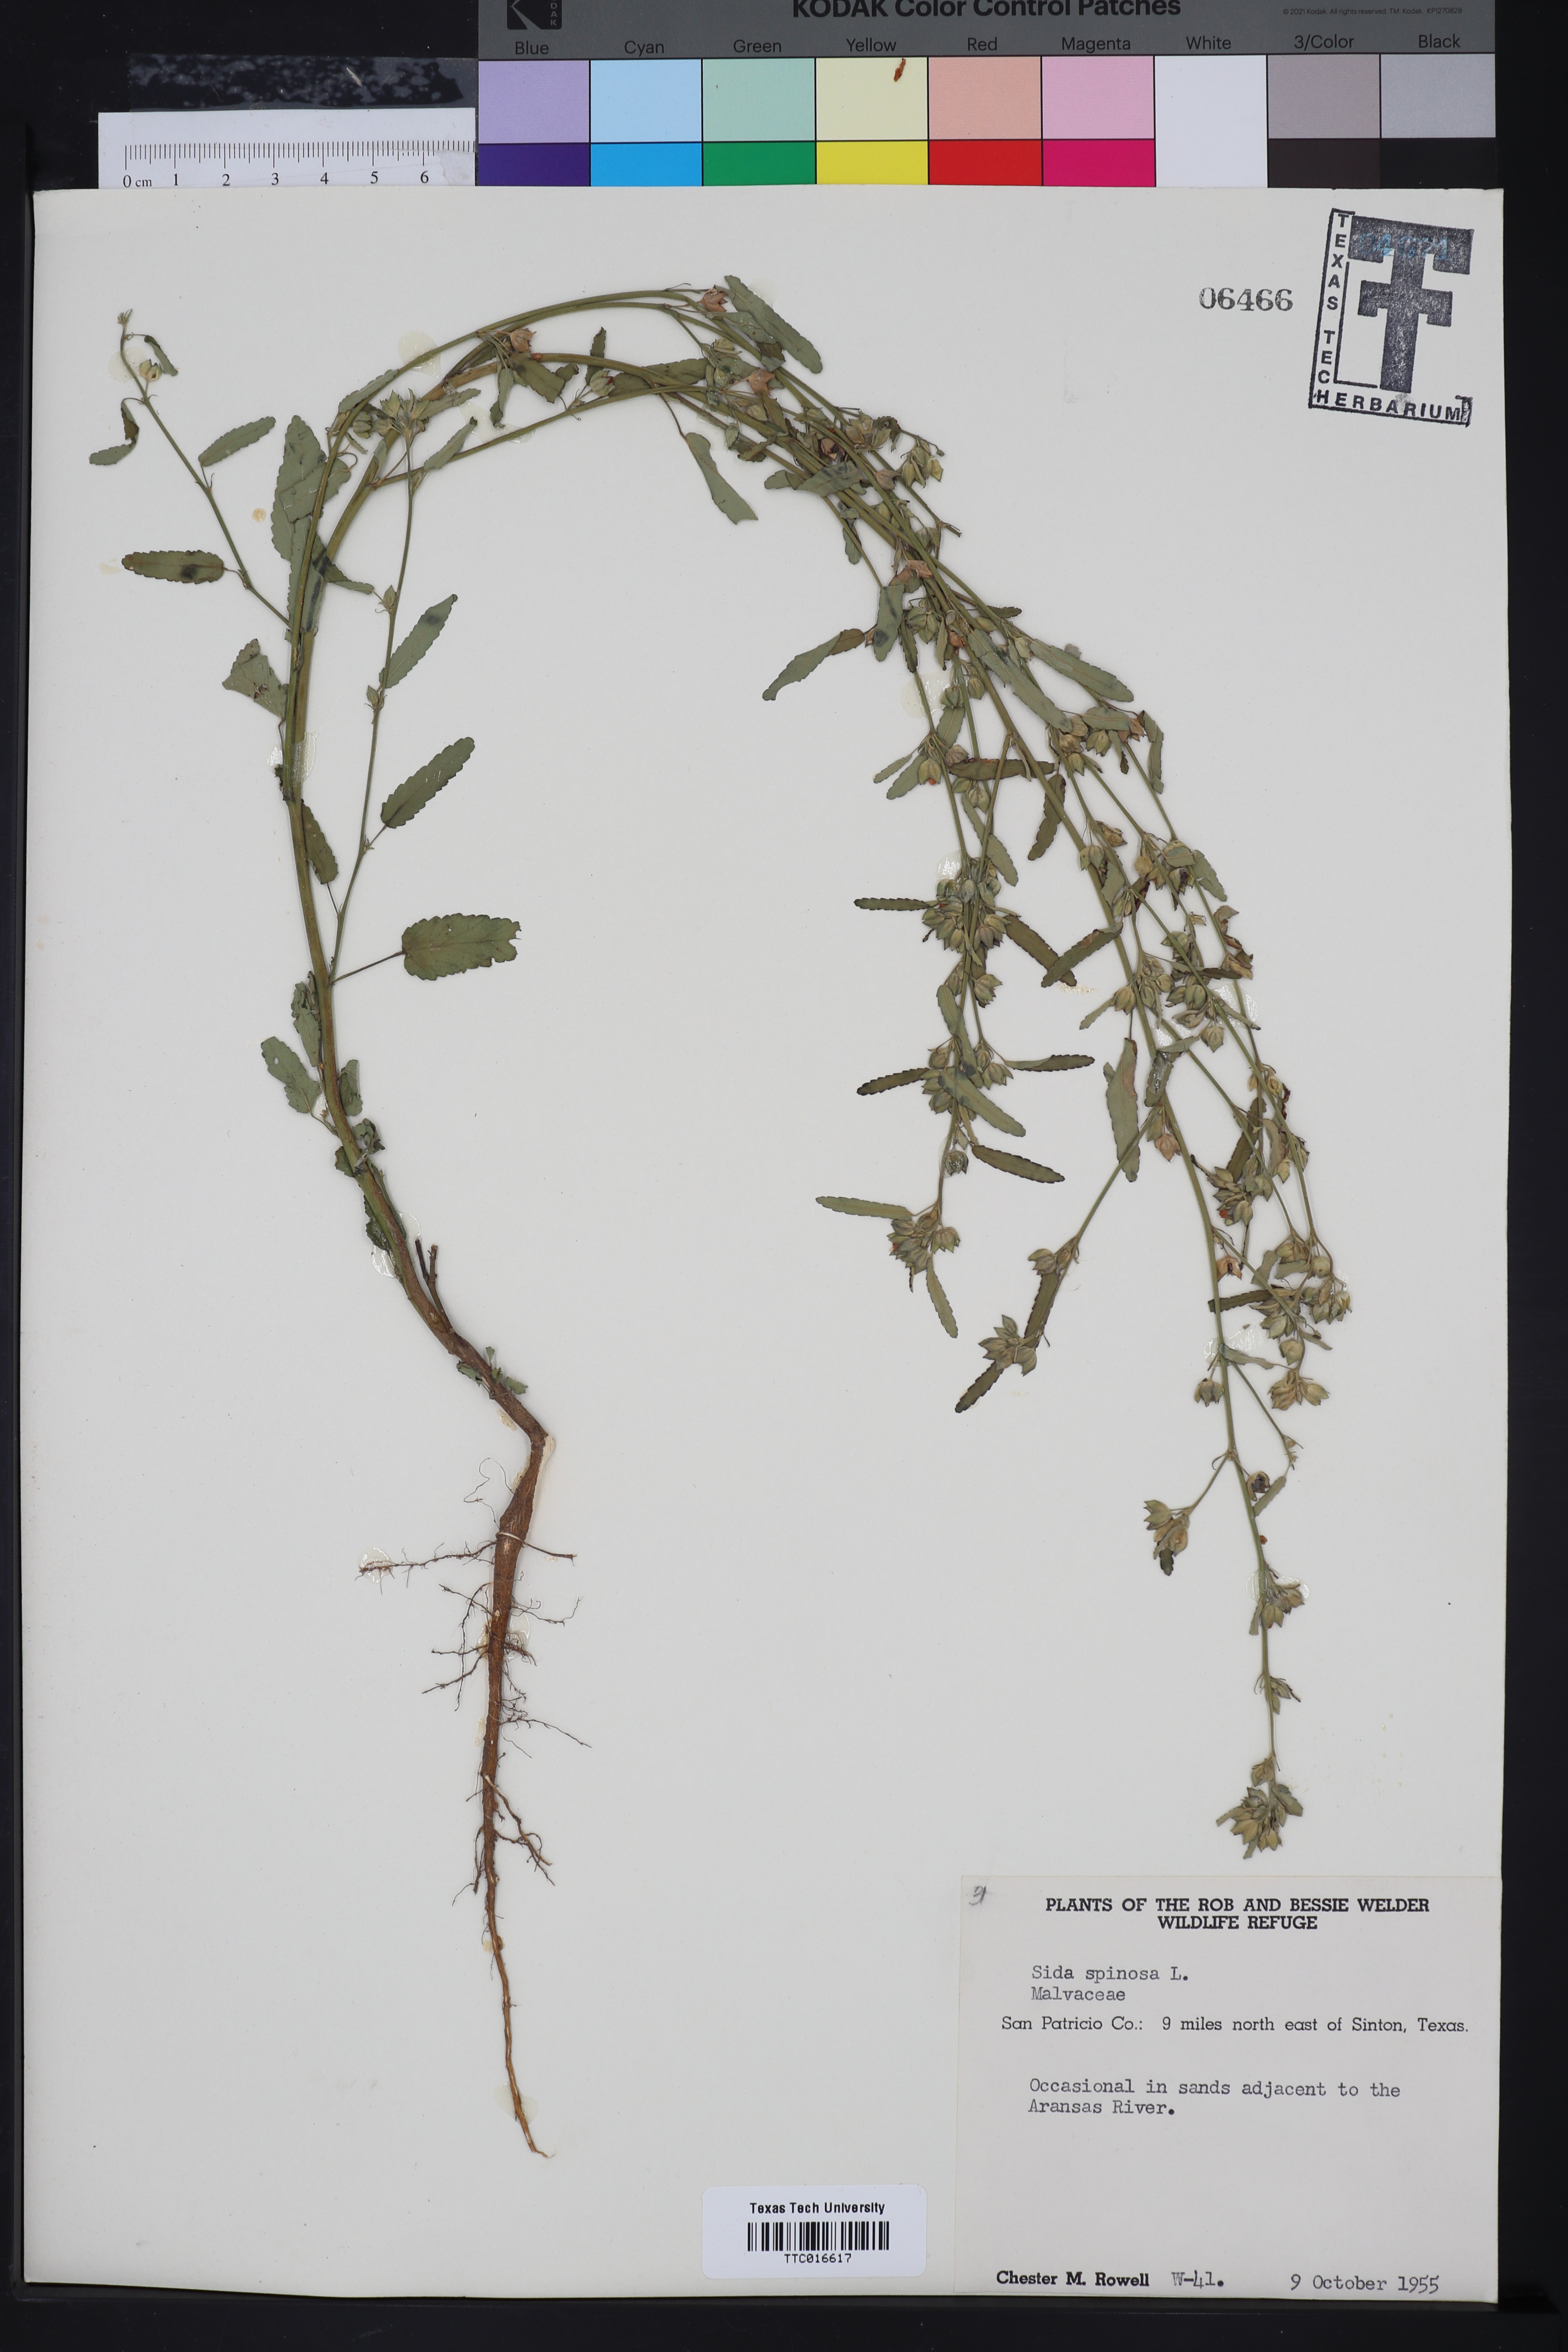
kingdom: Plantae
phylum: Tracheophyta
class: Magnoliopsida
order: Malvales
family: Malvaceae
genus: Sida
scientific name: Sida spinosa
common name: Prickly fanpetals
